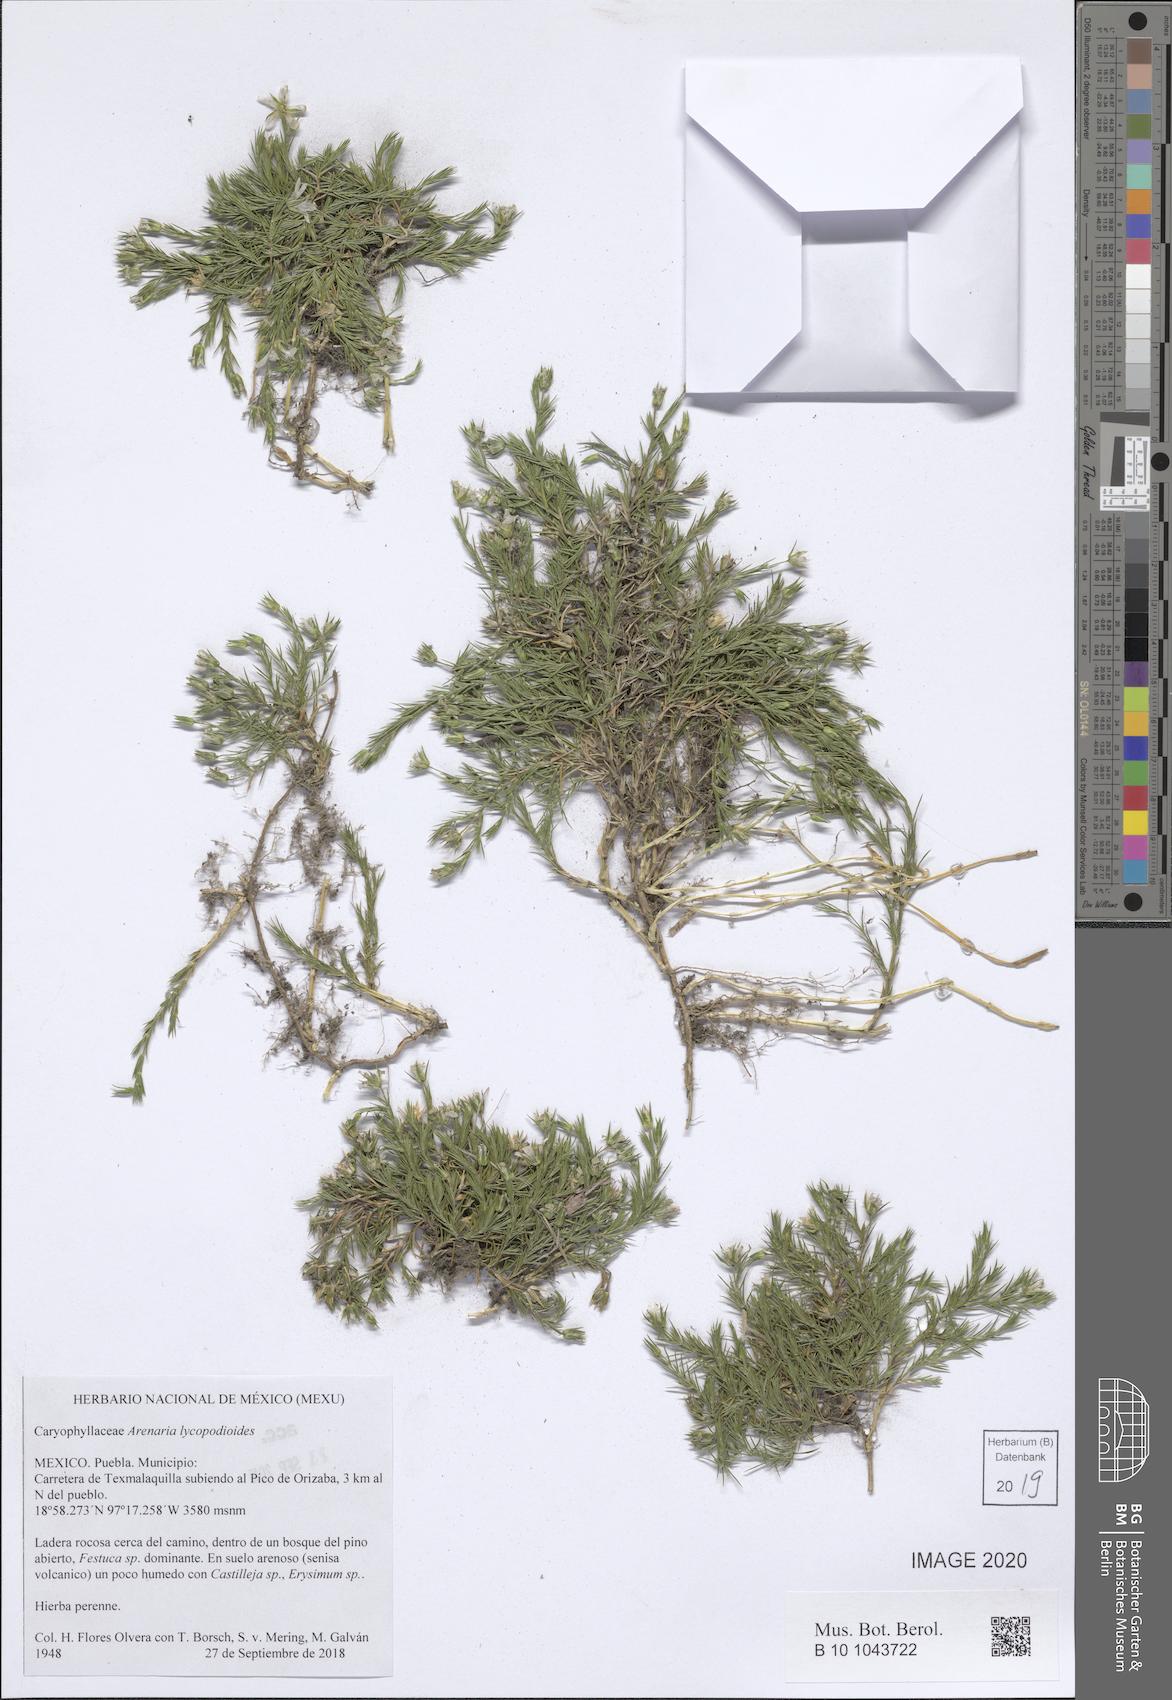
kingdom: Plantae
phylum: Tracheophyta
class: Magnoliopsida
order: Caryophyllales
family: Caryophyllaceae
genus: Arenaria
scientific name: Arenaria lycopodioides
